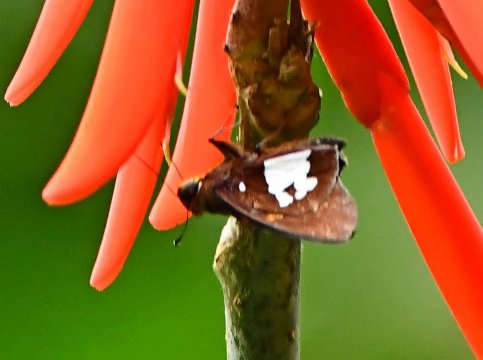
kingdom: Animalia
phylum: Arthropoda
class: Insecta
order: Lepidoptera
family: Hesperiidae
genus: Aides
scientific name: Aides dysoni
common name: Dyson's Silverpatch
